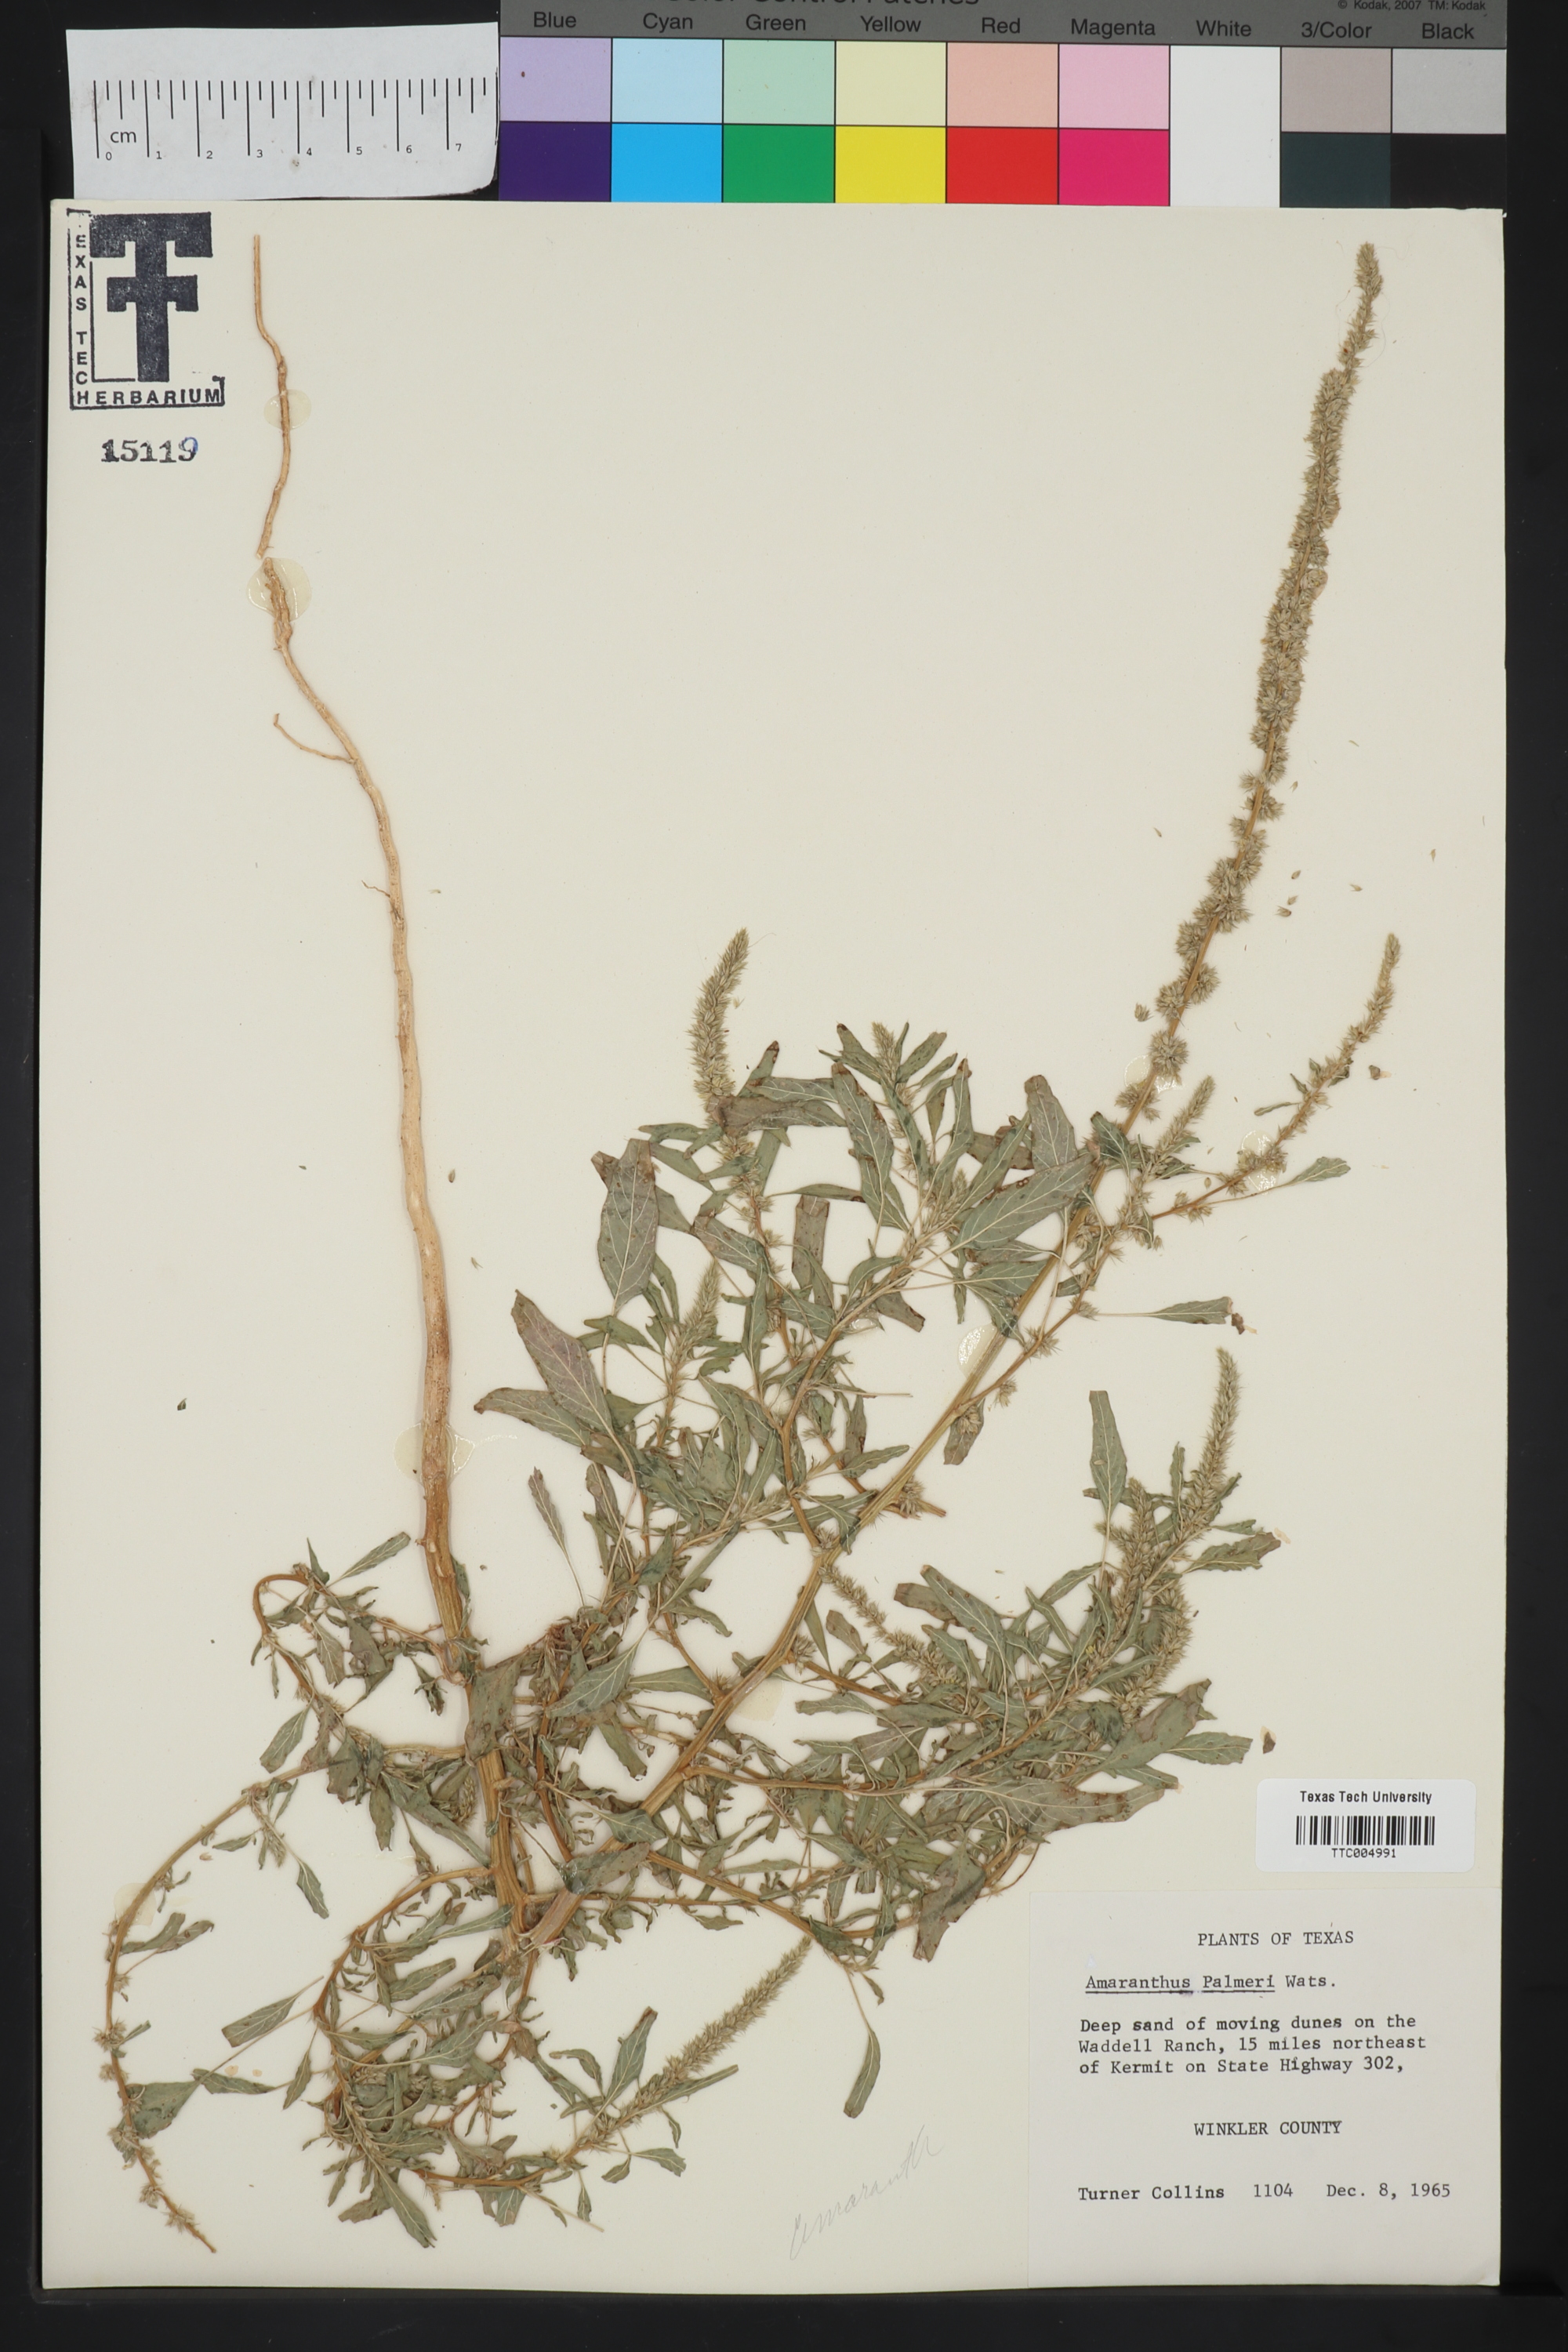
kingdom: Plantae
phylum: Tracheophyta
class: Magnoliopsida
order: Caryophyllales
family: Amaranthaceae
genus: Amaranthus
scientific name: Amaranthus palmeri
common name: Dioecious amaranth
